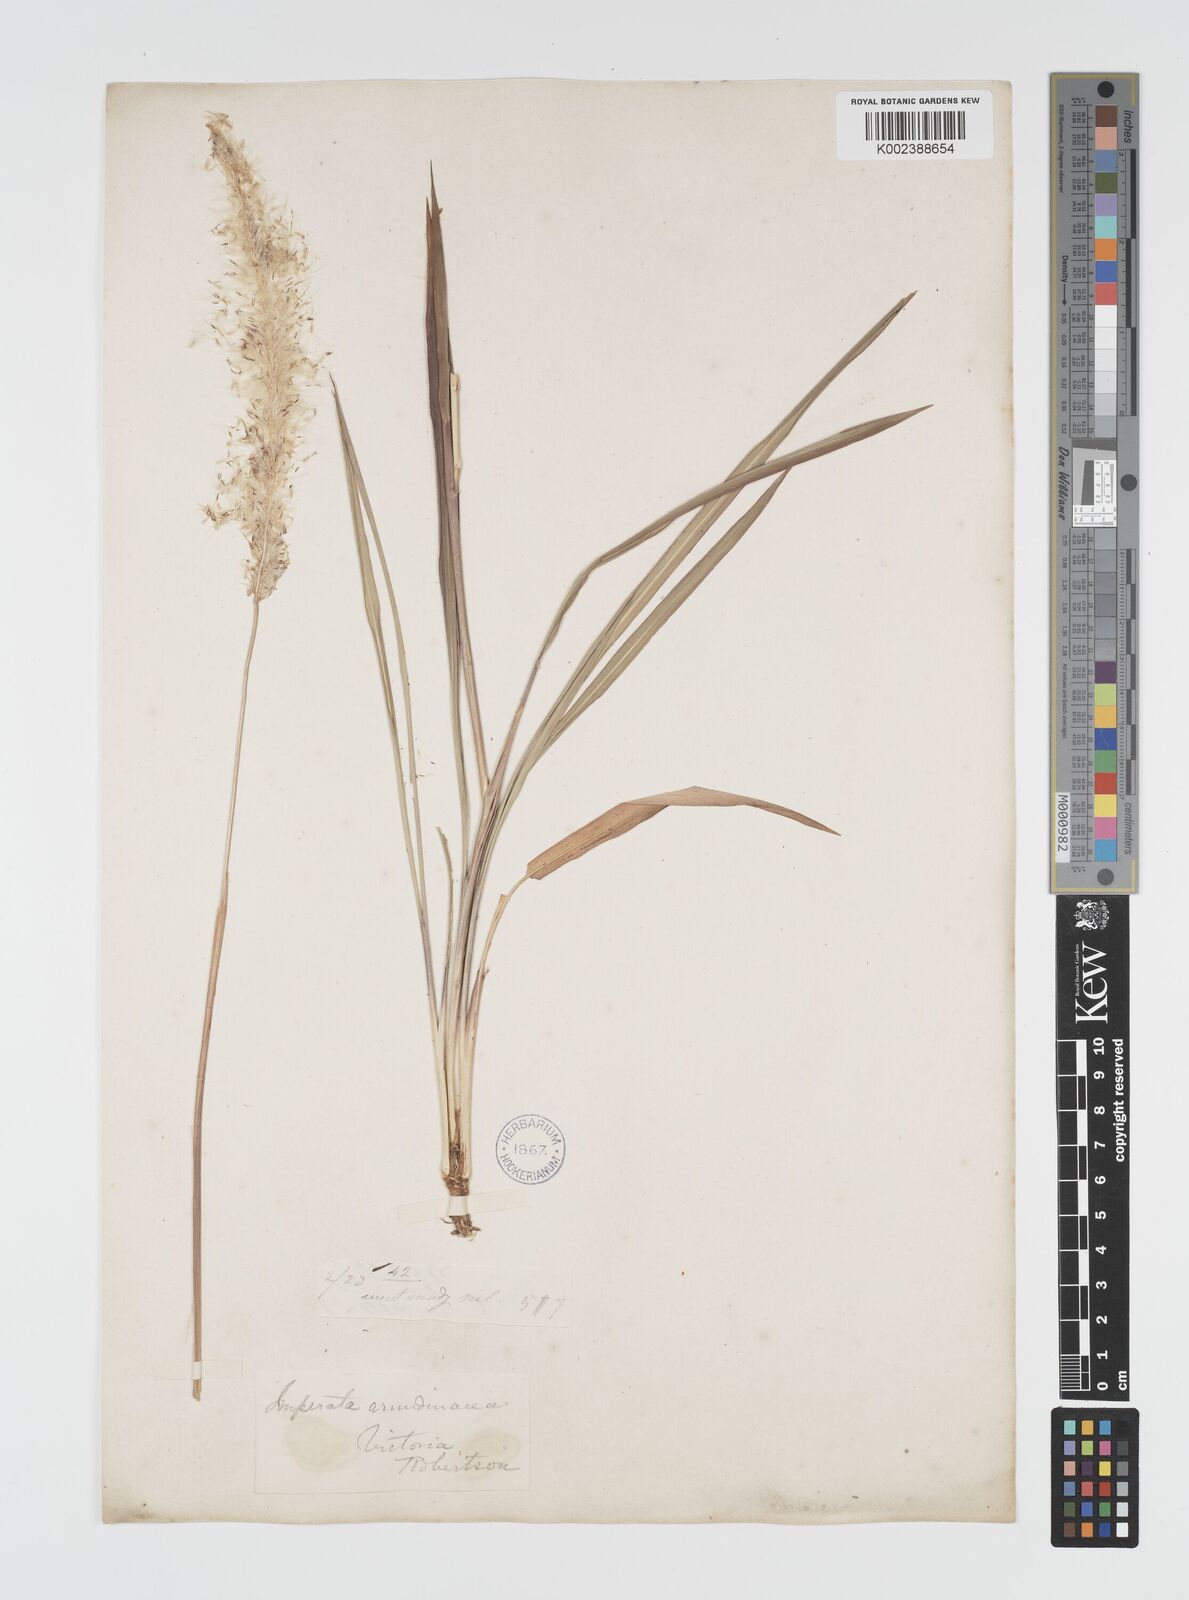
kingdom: Plantae
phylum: Tracheophyta
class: Liliopsida
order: Poales
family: Poaceae
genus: Imperata
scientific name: Imperata cylindrica
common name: Cogongrass
